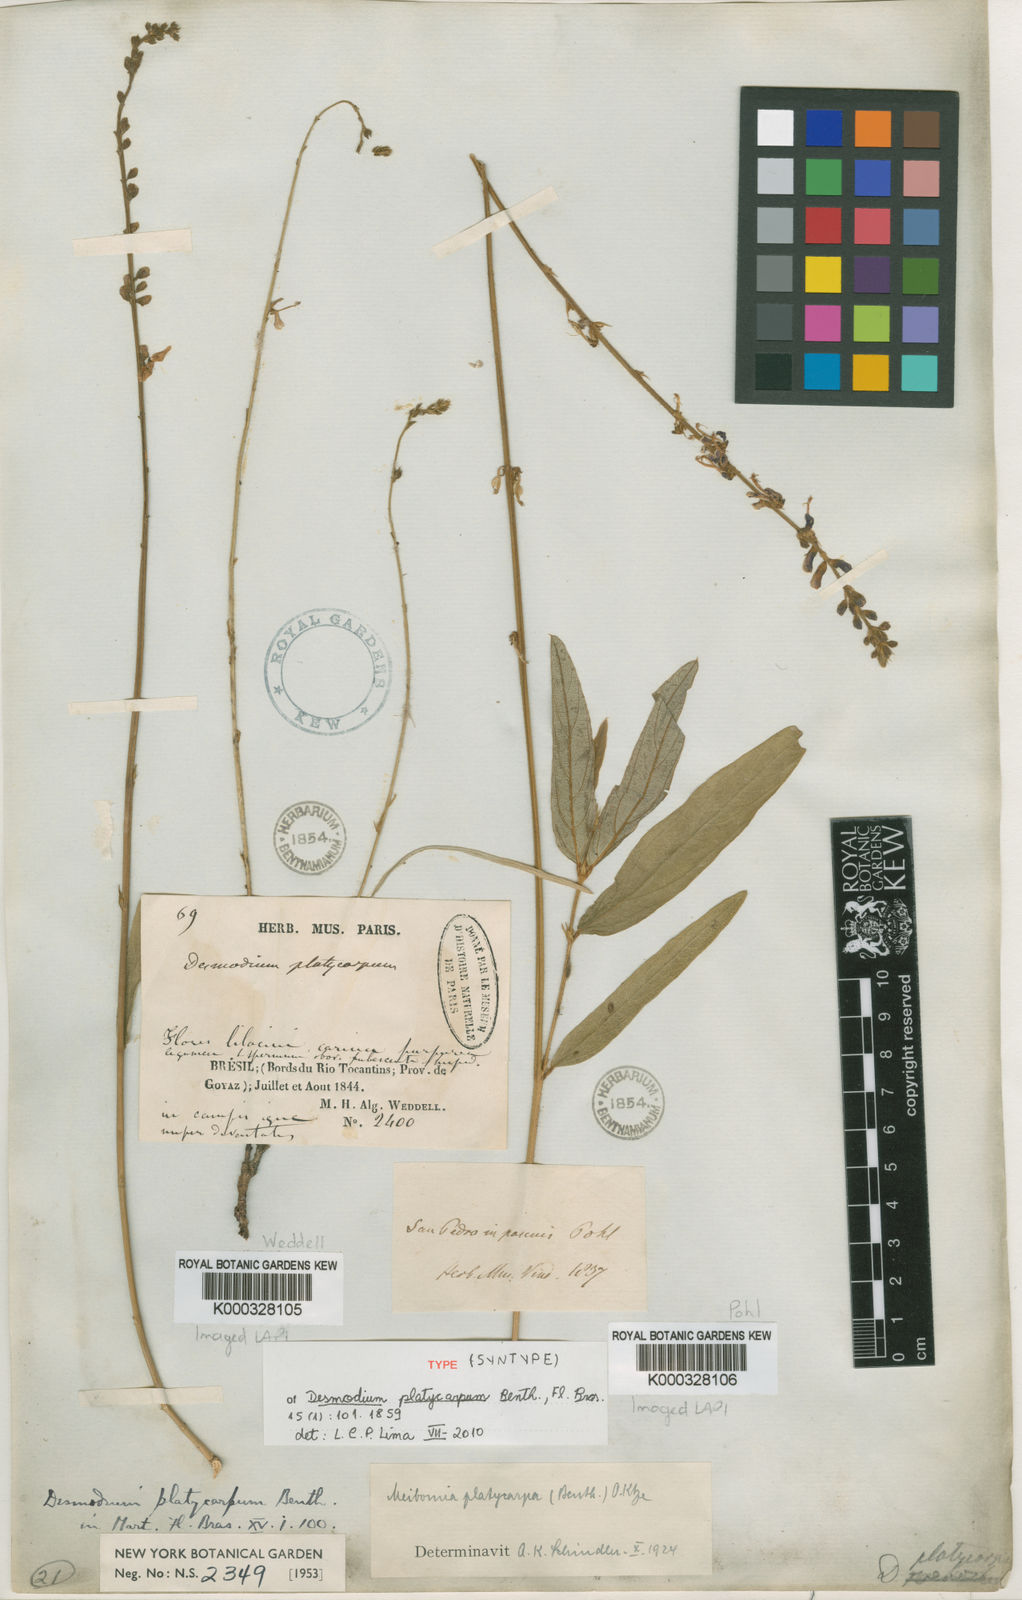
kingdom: Plantae
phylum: Tracheophyta
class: Magnoliopsida
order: Fabales
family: Fabaceae
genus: Desmodium
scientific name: Desmodium platycarpum
